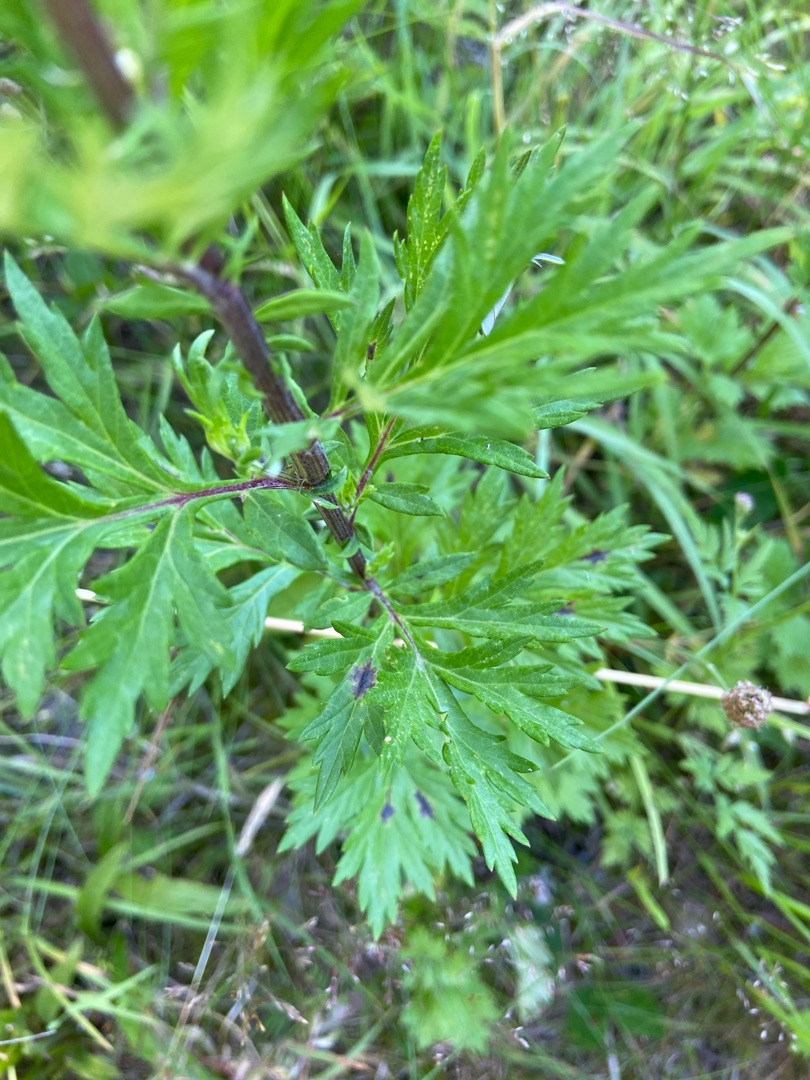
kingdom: Plantae
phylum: Tracheophyta
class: Magnoliopsida
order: Asterales
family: Asteraceae
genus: Artemisia
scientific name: Artemisia vulgaris
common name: Grå-bynke
